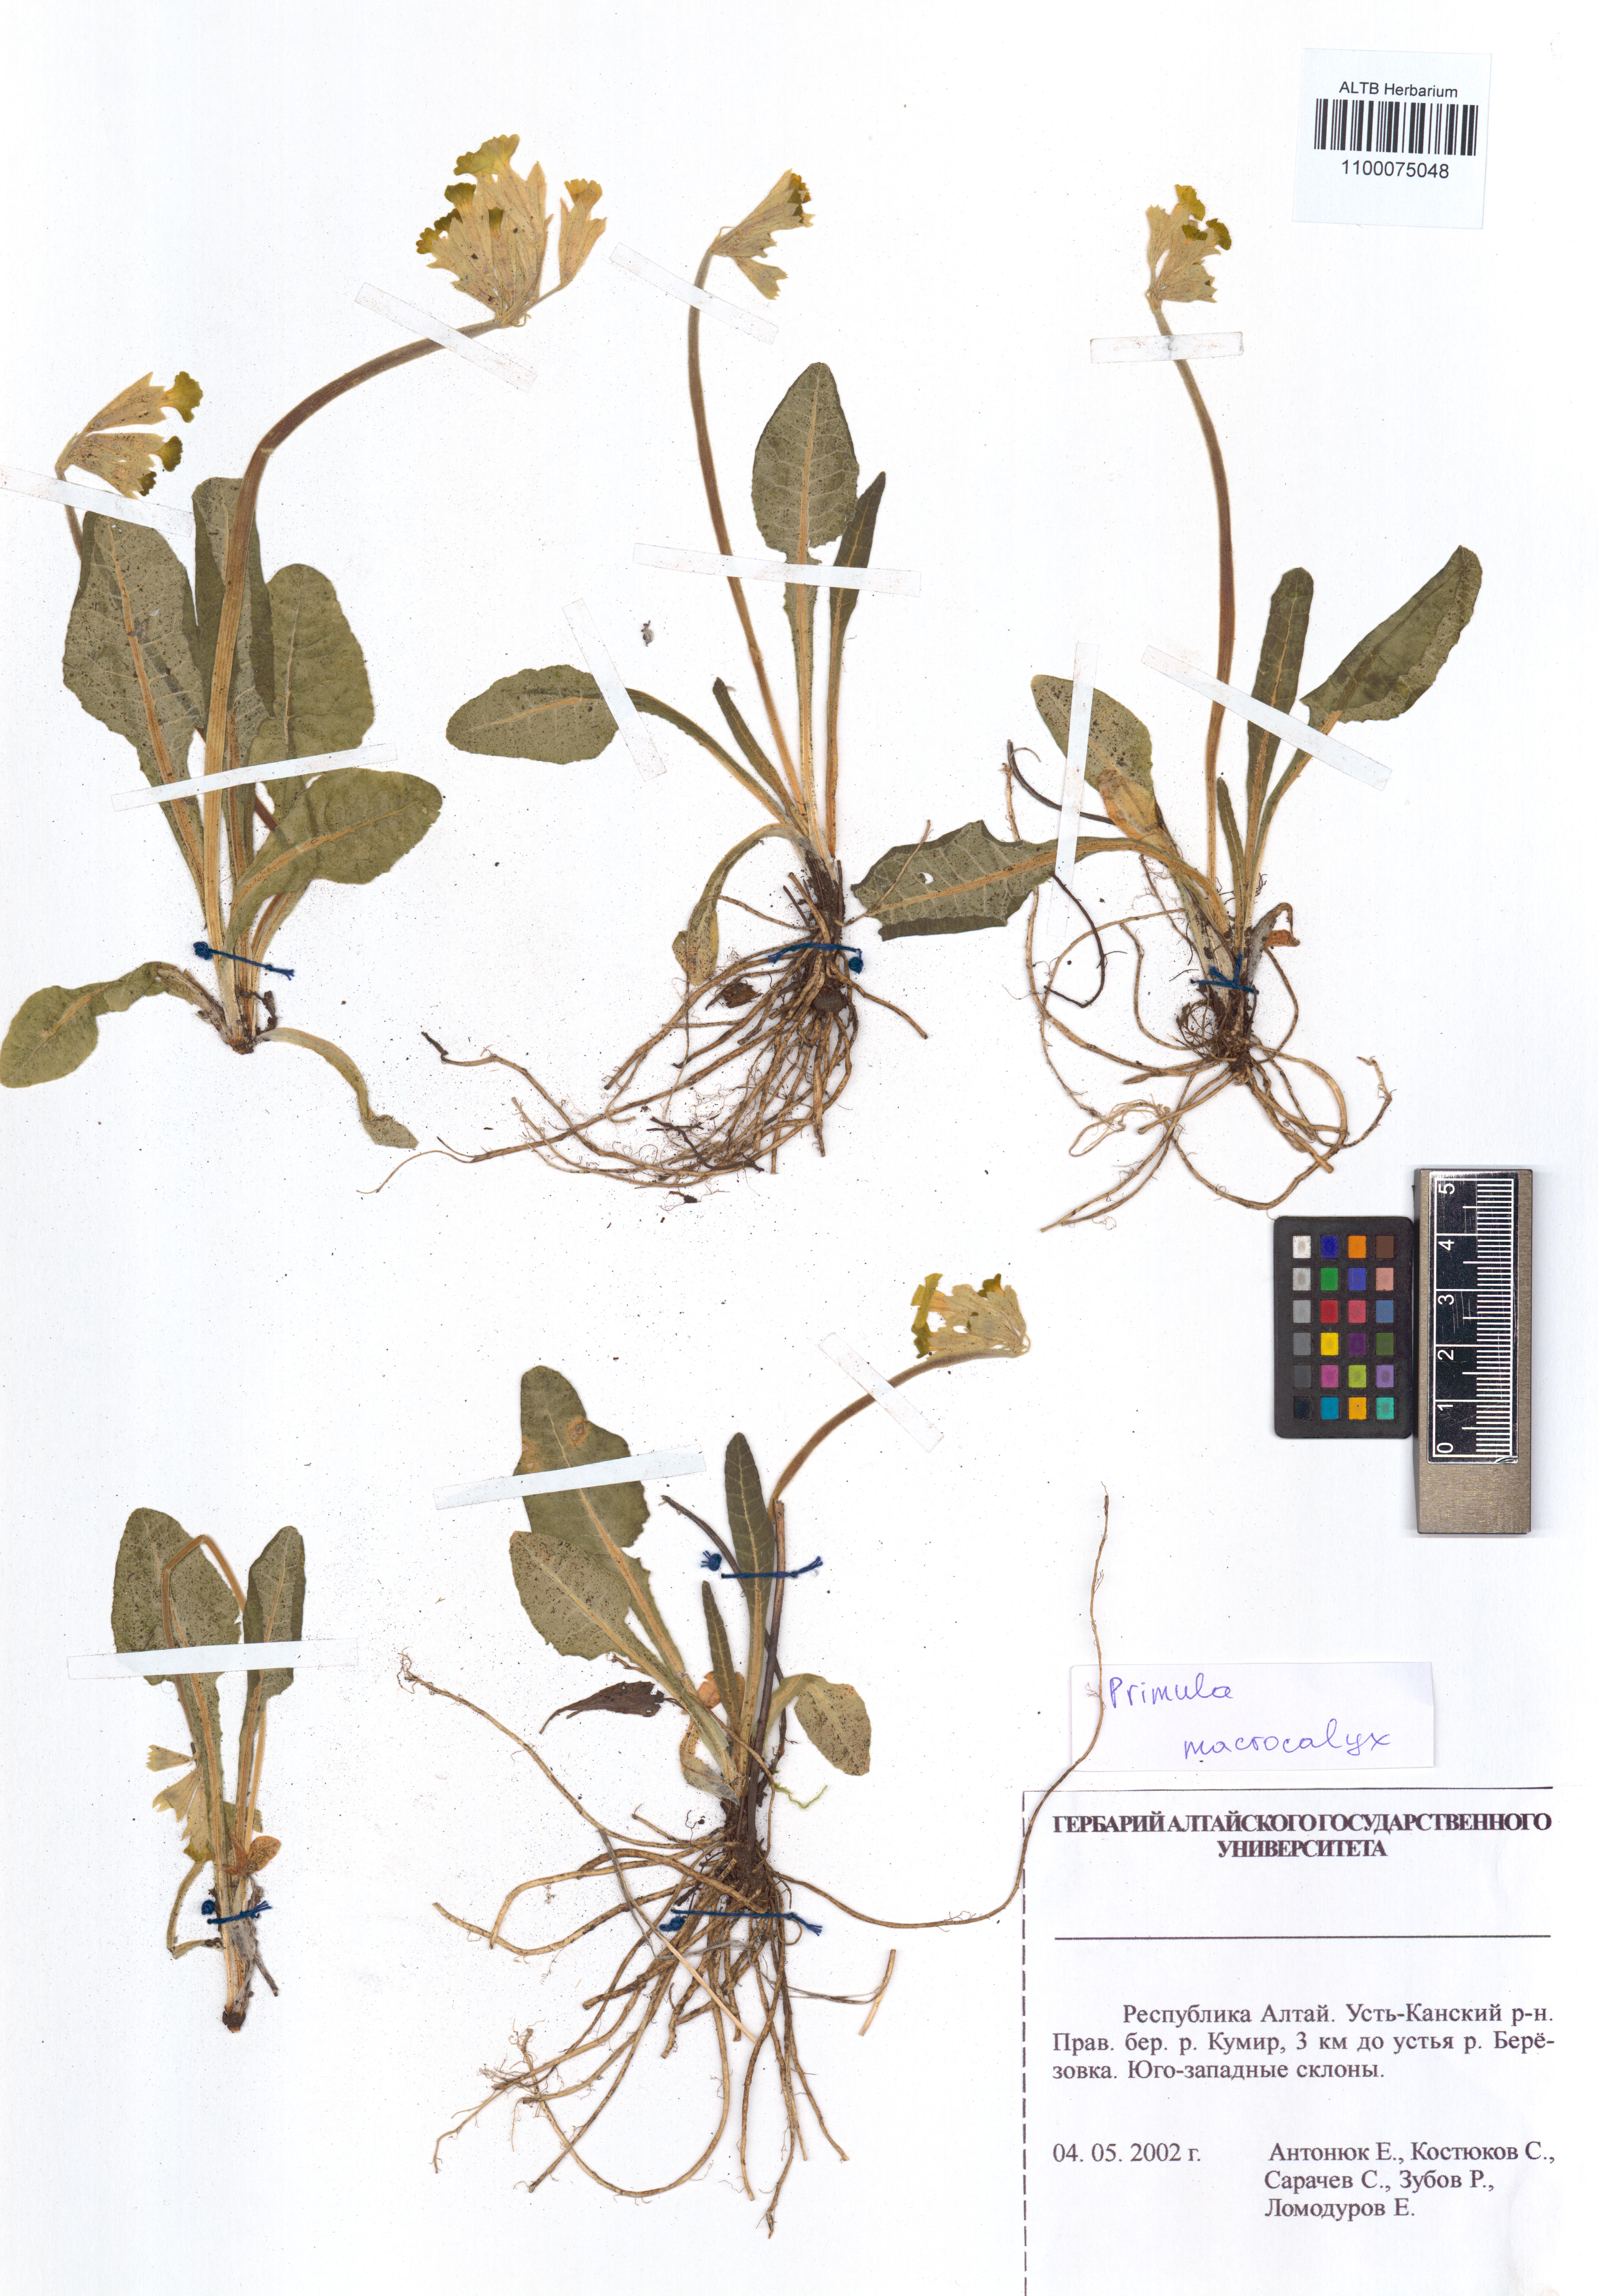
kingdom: Plantae
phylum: Tracheophyta
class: Magnoliopsida
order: Ericales
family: Primulaceae
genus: Primula
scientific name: Primula veris
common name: Cowslip
